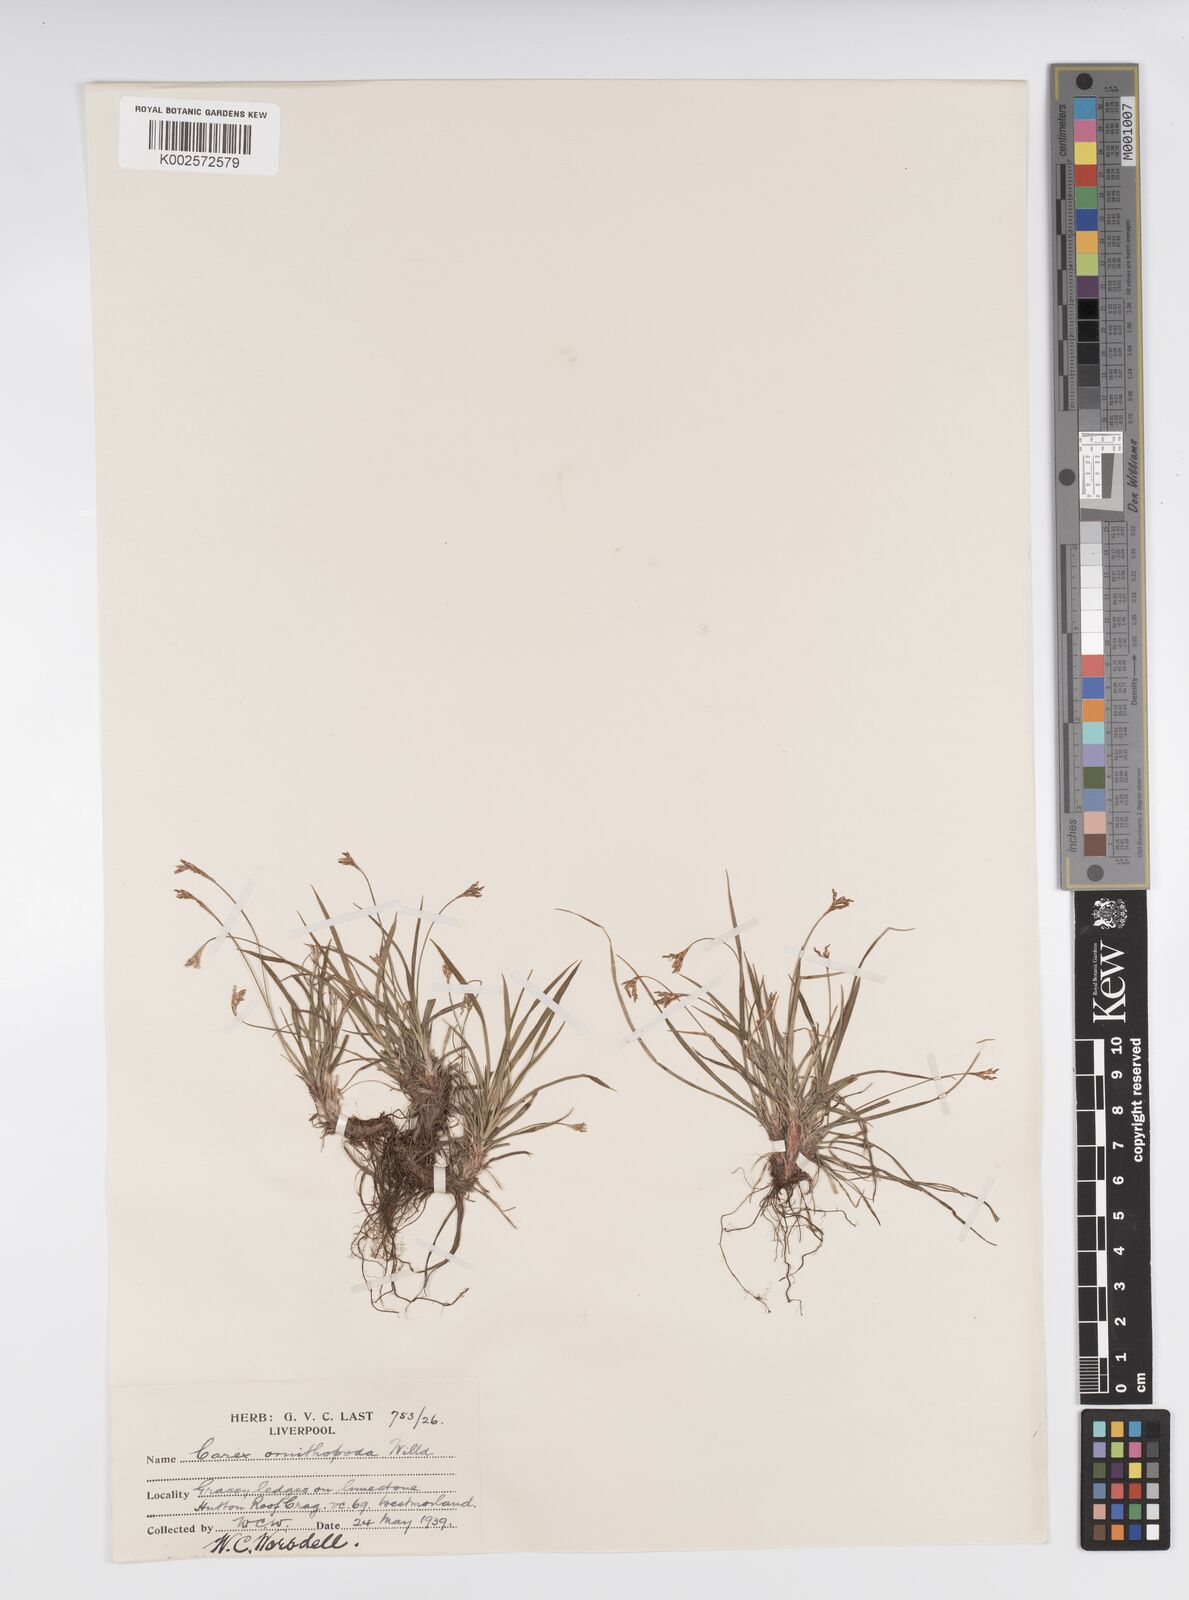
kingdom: Plantae
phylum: Tracheophyta
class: Liliopsida
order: Poales
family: Cyperaceae
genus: Carex
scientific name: Carex ornithopoda
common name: Bird's-foot sedge
